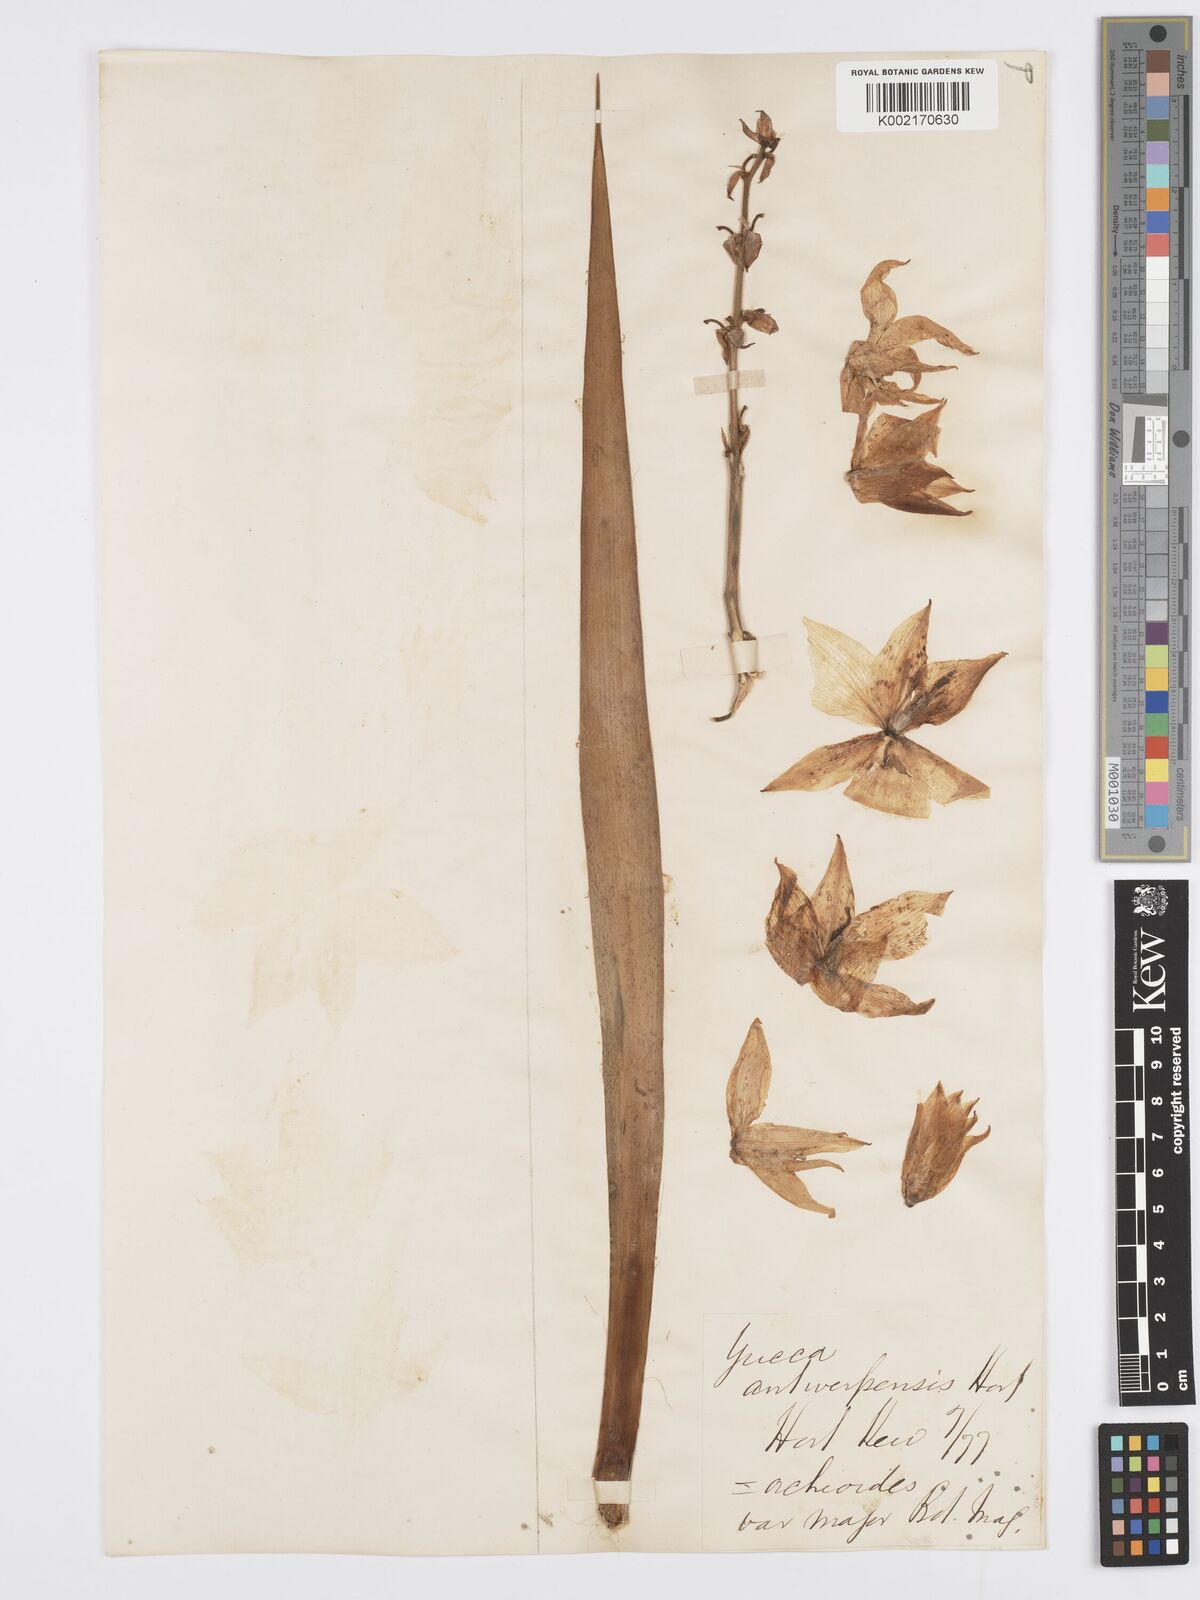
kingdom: Plantae
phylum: Tracheophyta
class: Liliopsida
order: Asparagales
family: Asparagaceae
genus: Yucca
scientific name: Yucca flaccida
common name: Adam's-needle
